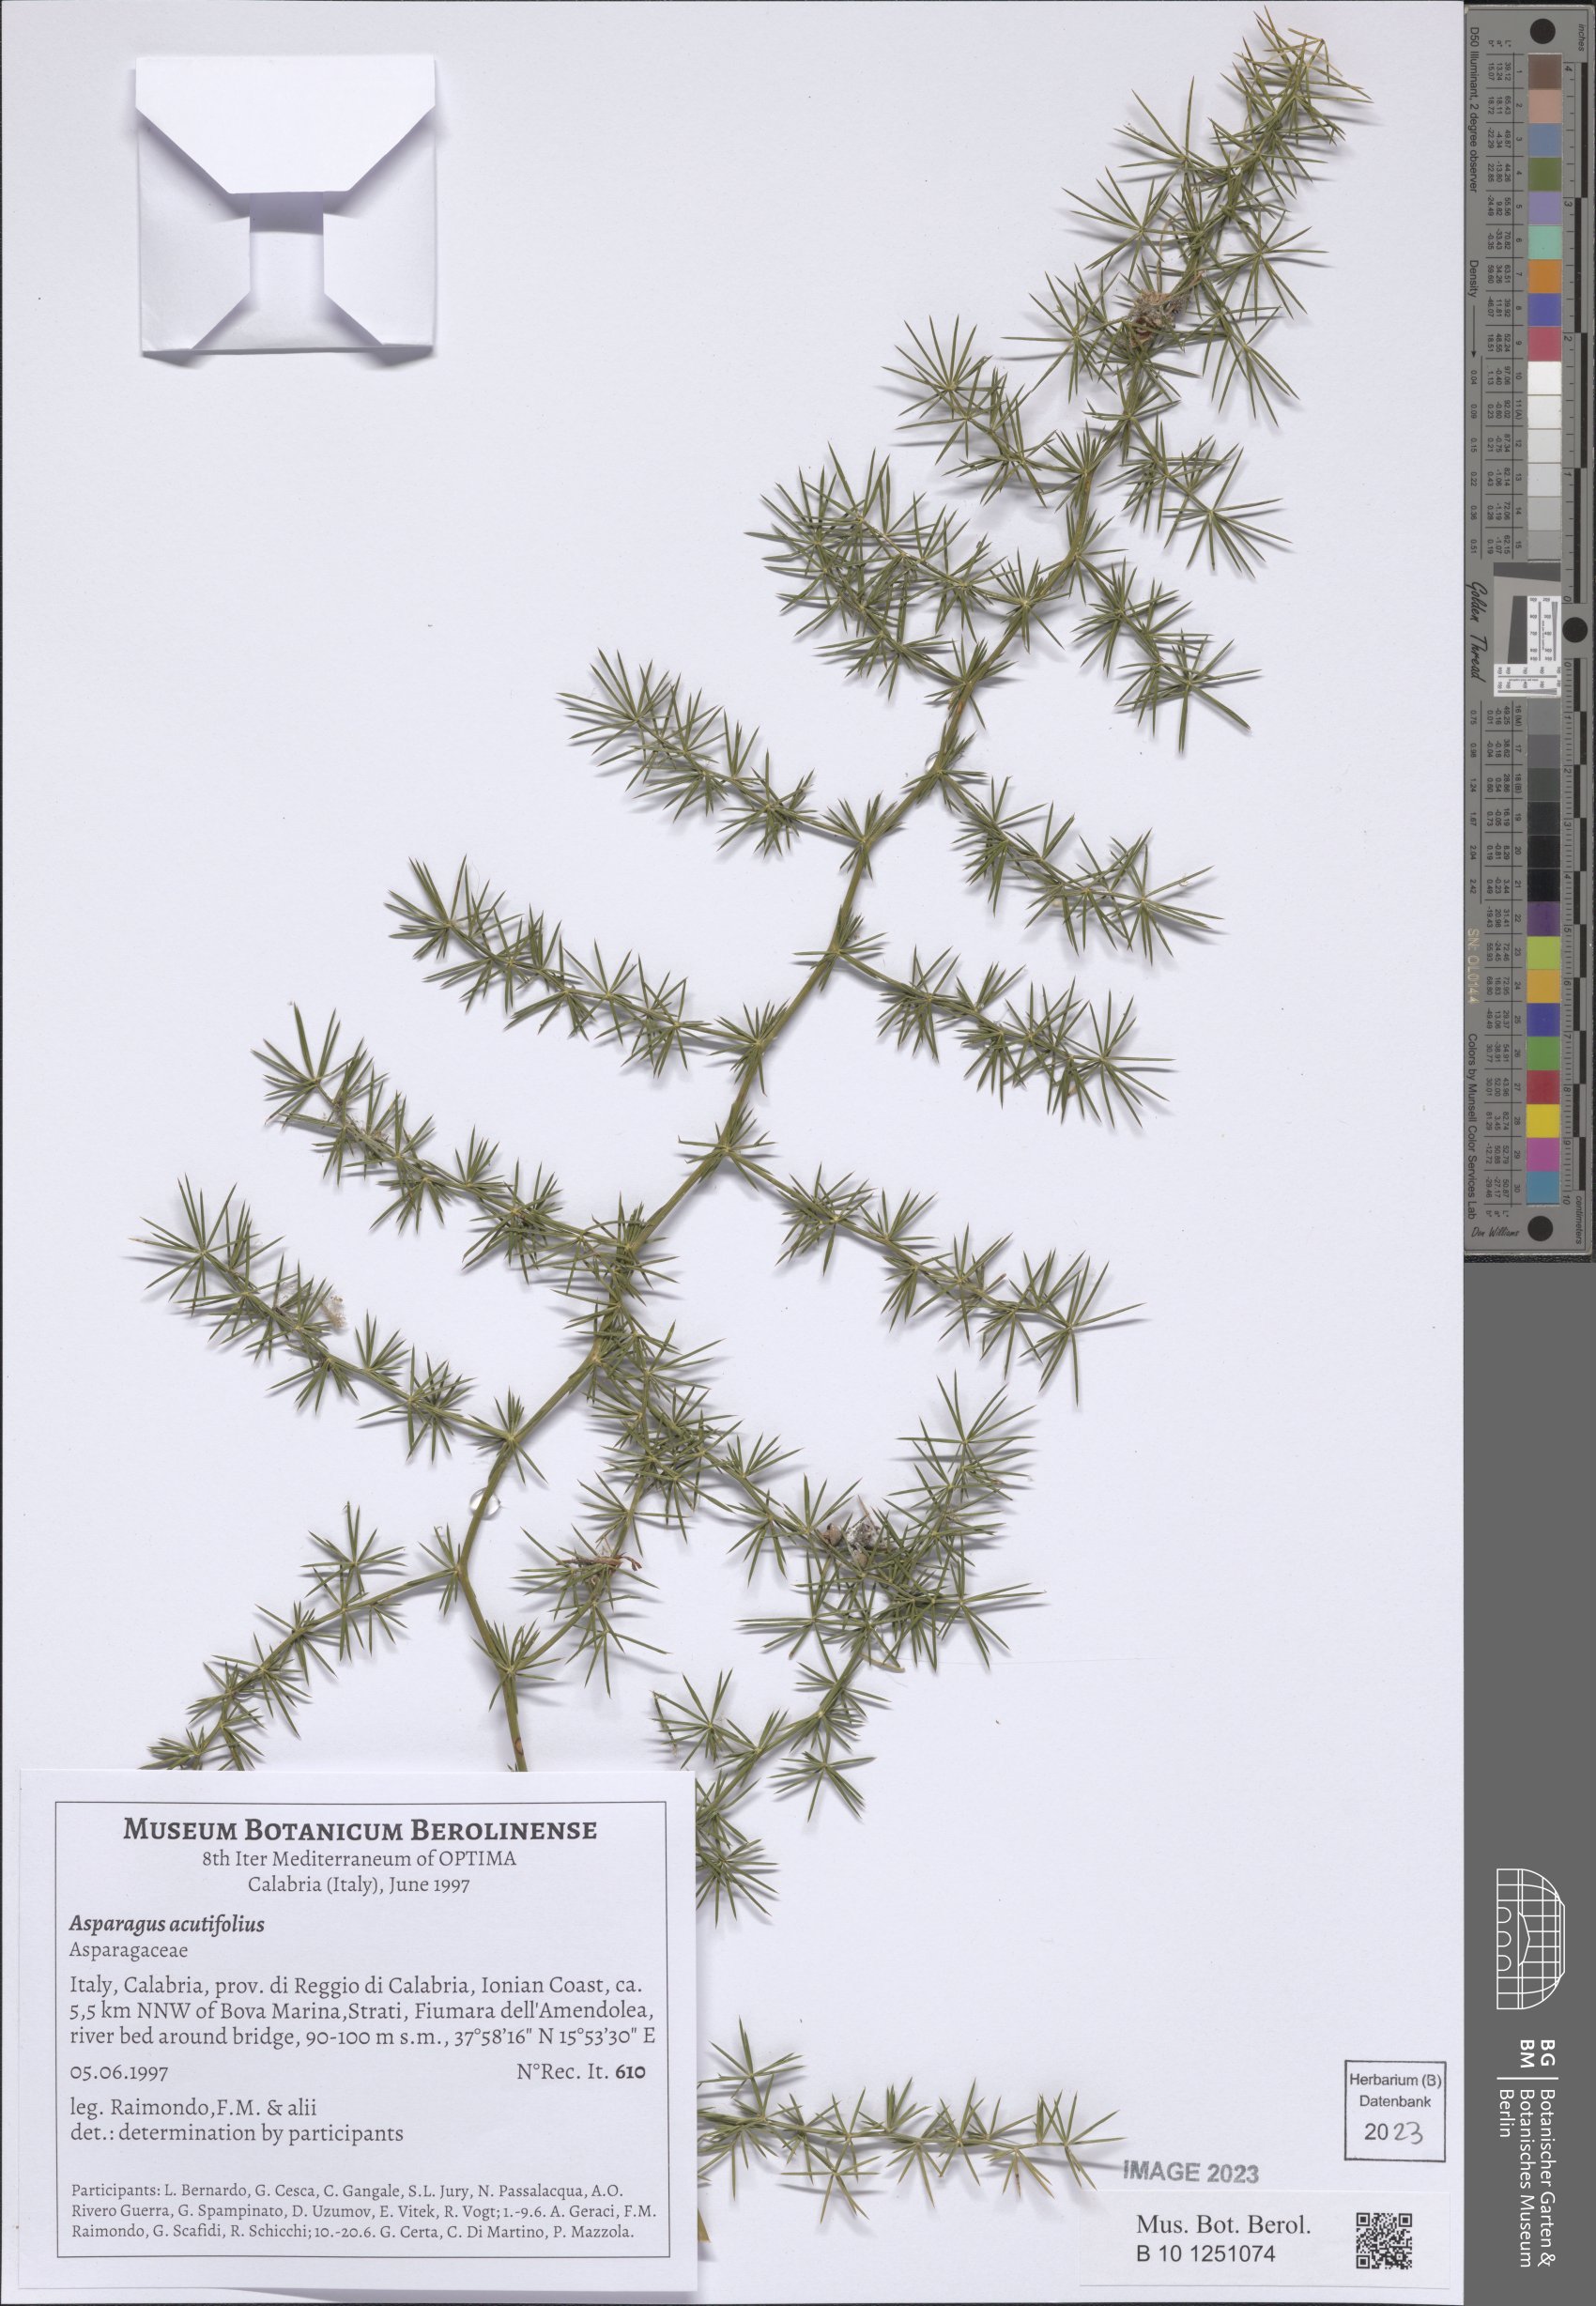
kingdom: Plantae
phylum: Tracheophyta
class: Liliopsida
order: Asparagales
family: Asparagaceae
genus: Asparagus
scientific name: Asparagus acutifolius
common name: Wild asparagus
